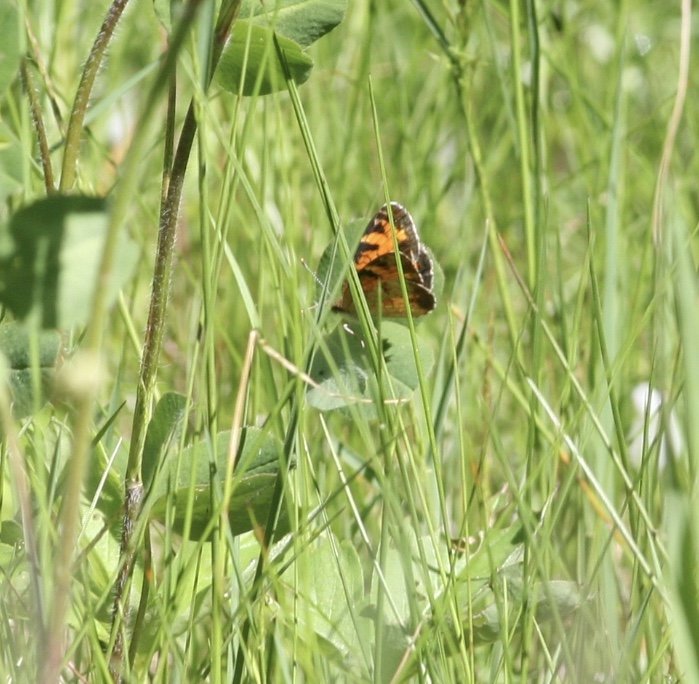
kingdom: Animalia
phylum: Arthropoda
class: Insecta
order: Lepidoptera
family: Nymphalidae
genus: Phyciodes
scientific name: Phyciodes tharos
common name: Northern Crescent
